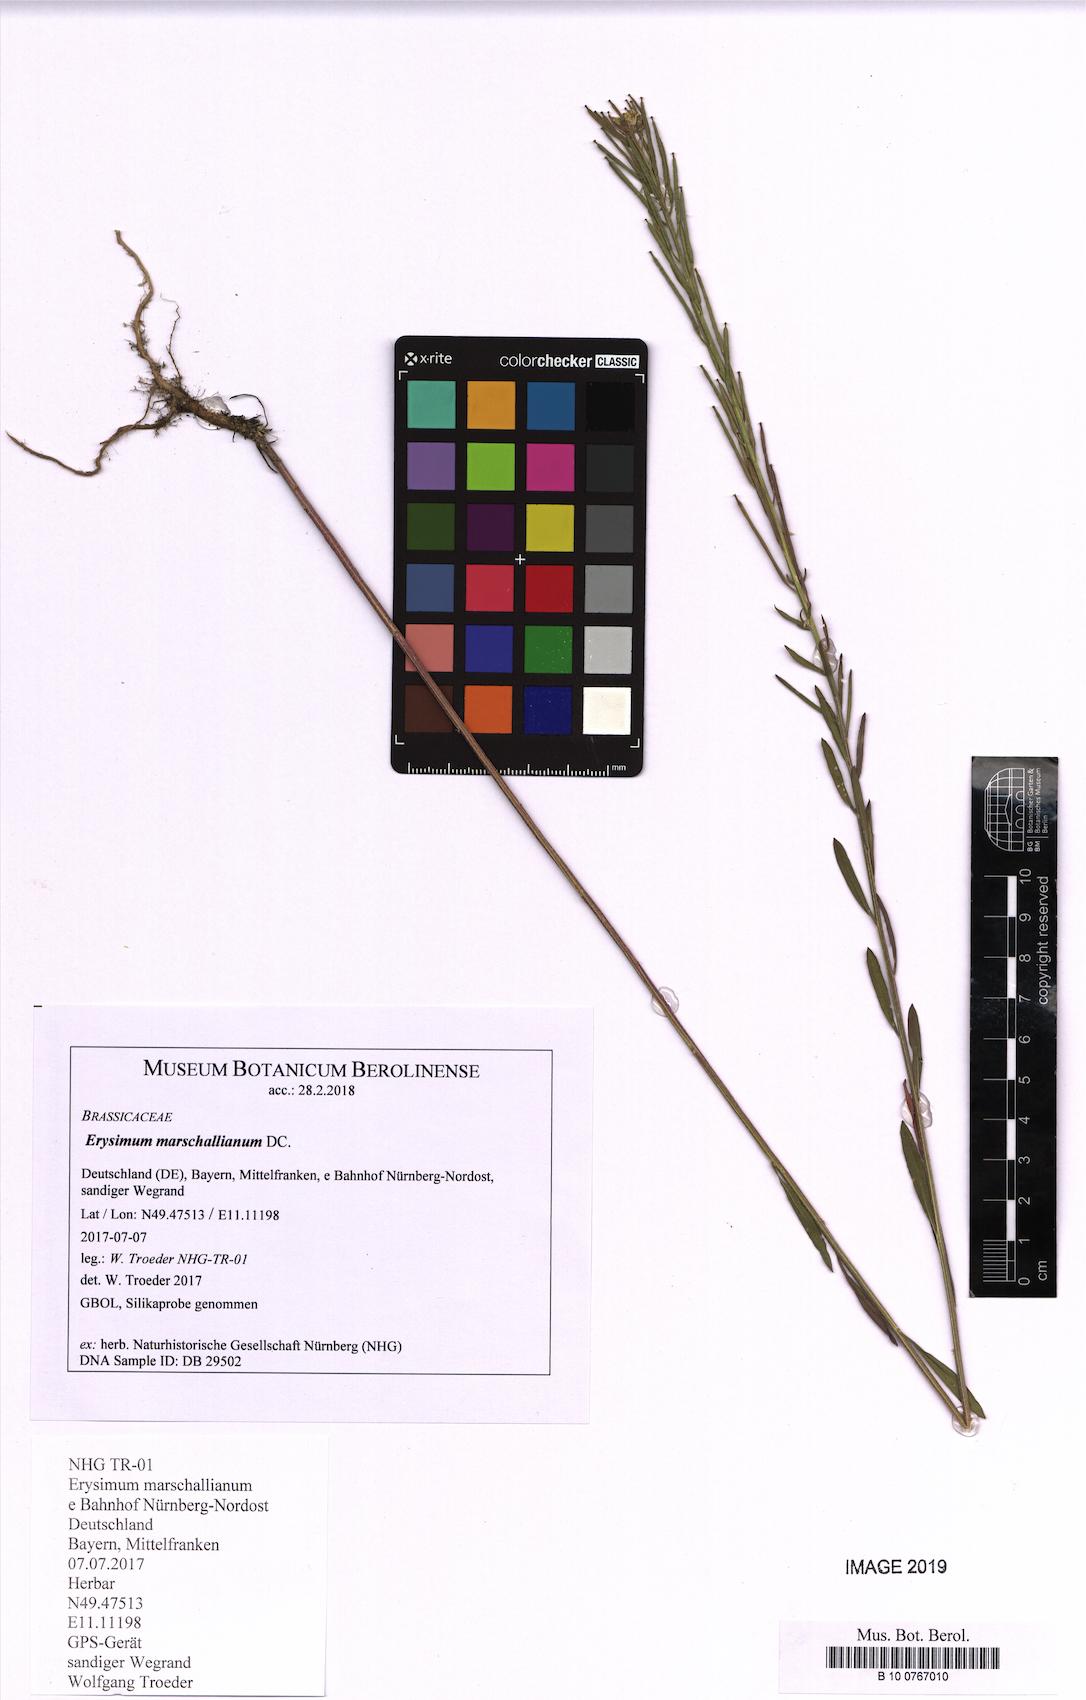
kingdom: Plantae
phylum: Tracheophyta
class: Magnoliopsida
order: Brassicales
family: Brassicaceae
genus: Erysimum
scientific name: Erysimum marschallianum
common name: Hard wallflower
